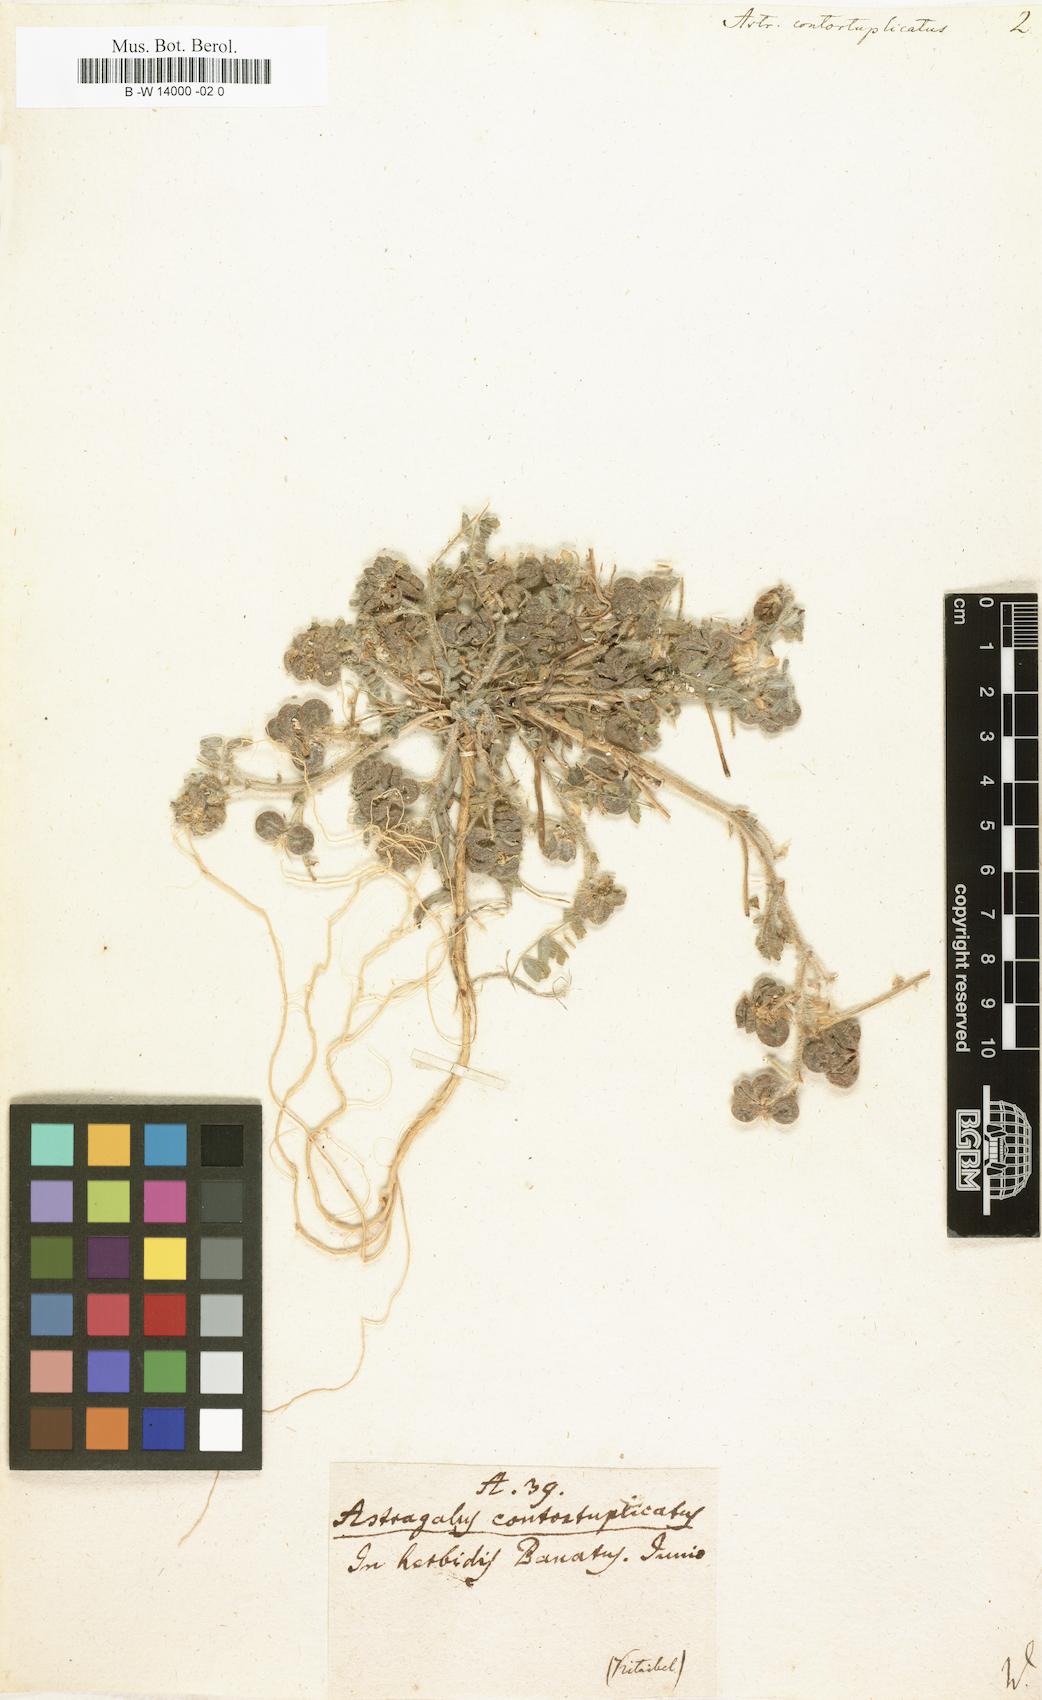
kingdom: Plantae
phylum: Tracheophyta
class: Magnoliopsida
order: Fabales
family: Fabaceae
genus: Astragalus
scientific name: Astragalus contortuplicatus
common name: Hungarian milkvetch
